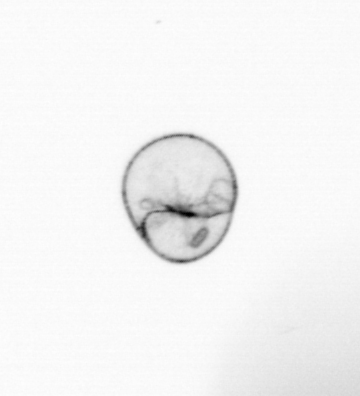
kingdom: Chromista
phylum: Myzozoa
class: Dinophyceae
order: Noctilucales
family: Noctilucaceae
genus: Noctiluca
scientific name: Noctiluca scintillans
